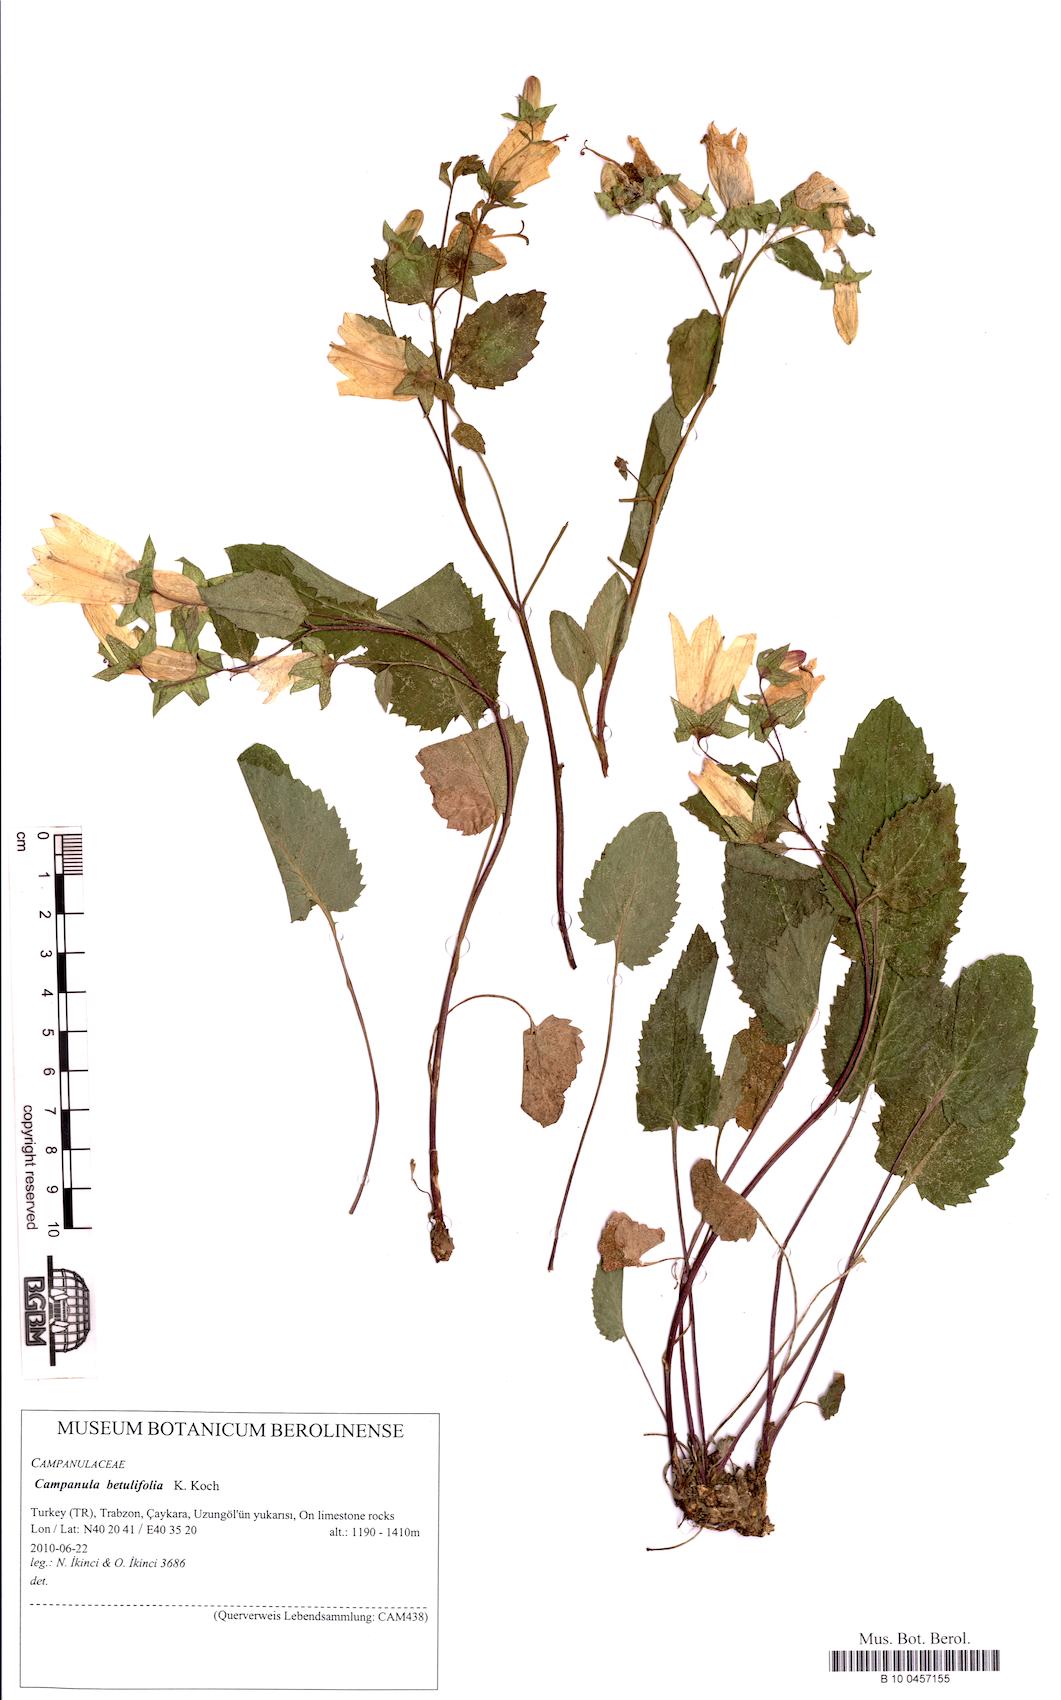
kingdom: Plantae
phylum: Tracheophyta
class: Magnoliopsida
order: Asterales
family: Campanulaceae
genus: Campanula
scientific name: Campanula betulifolia
